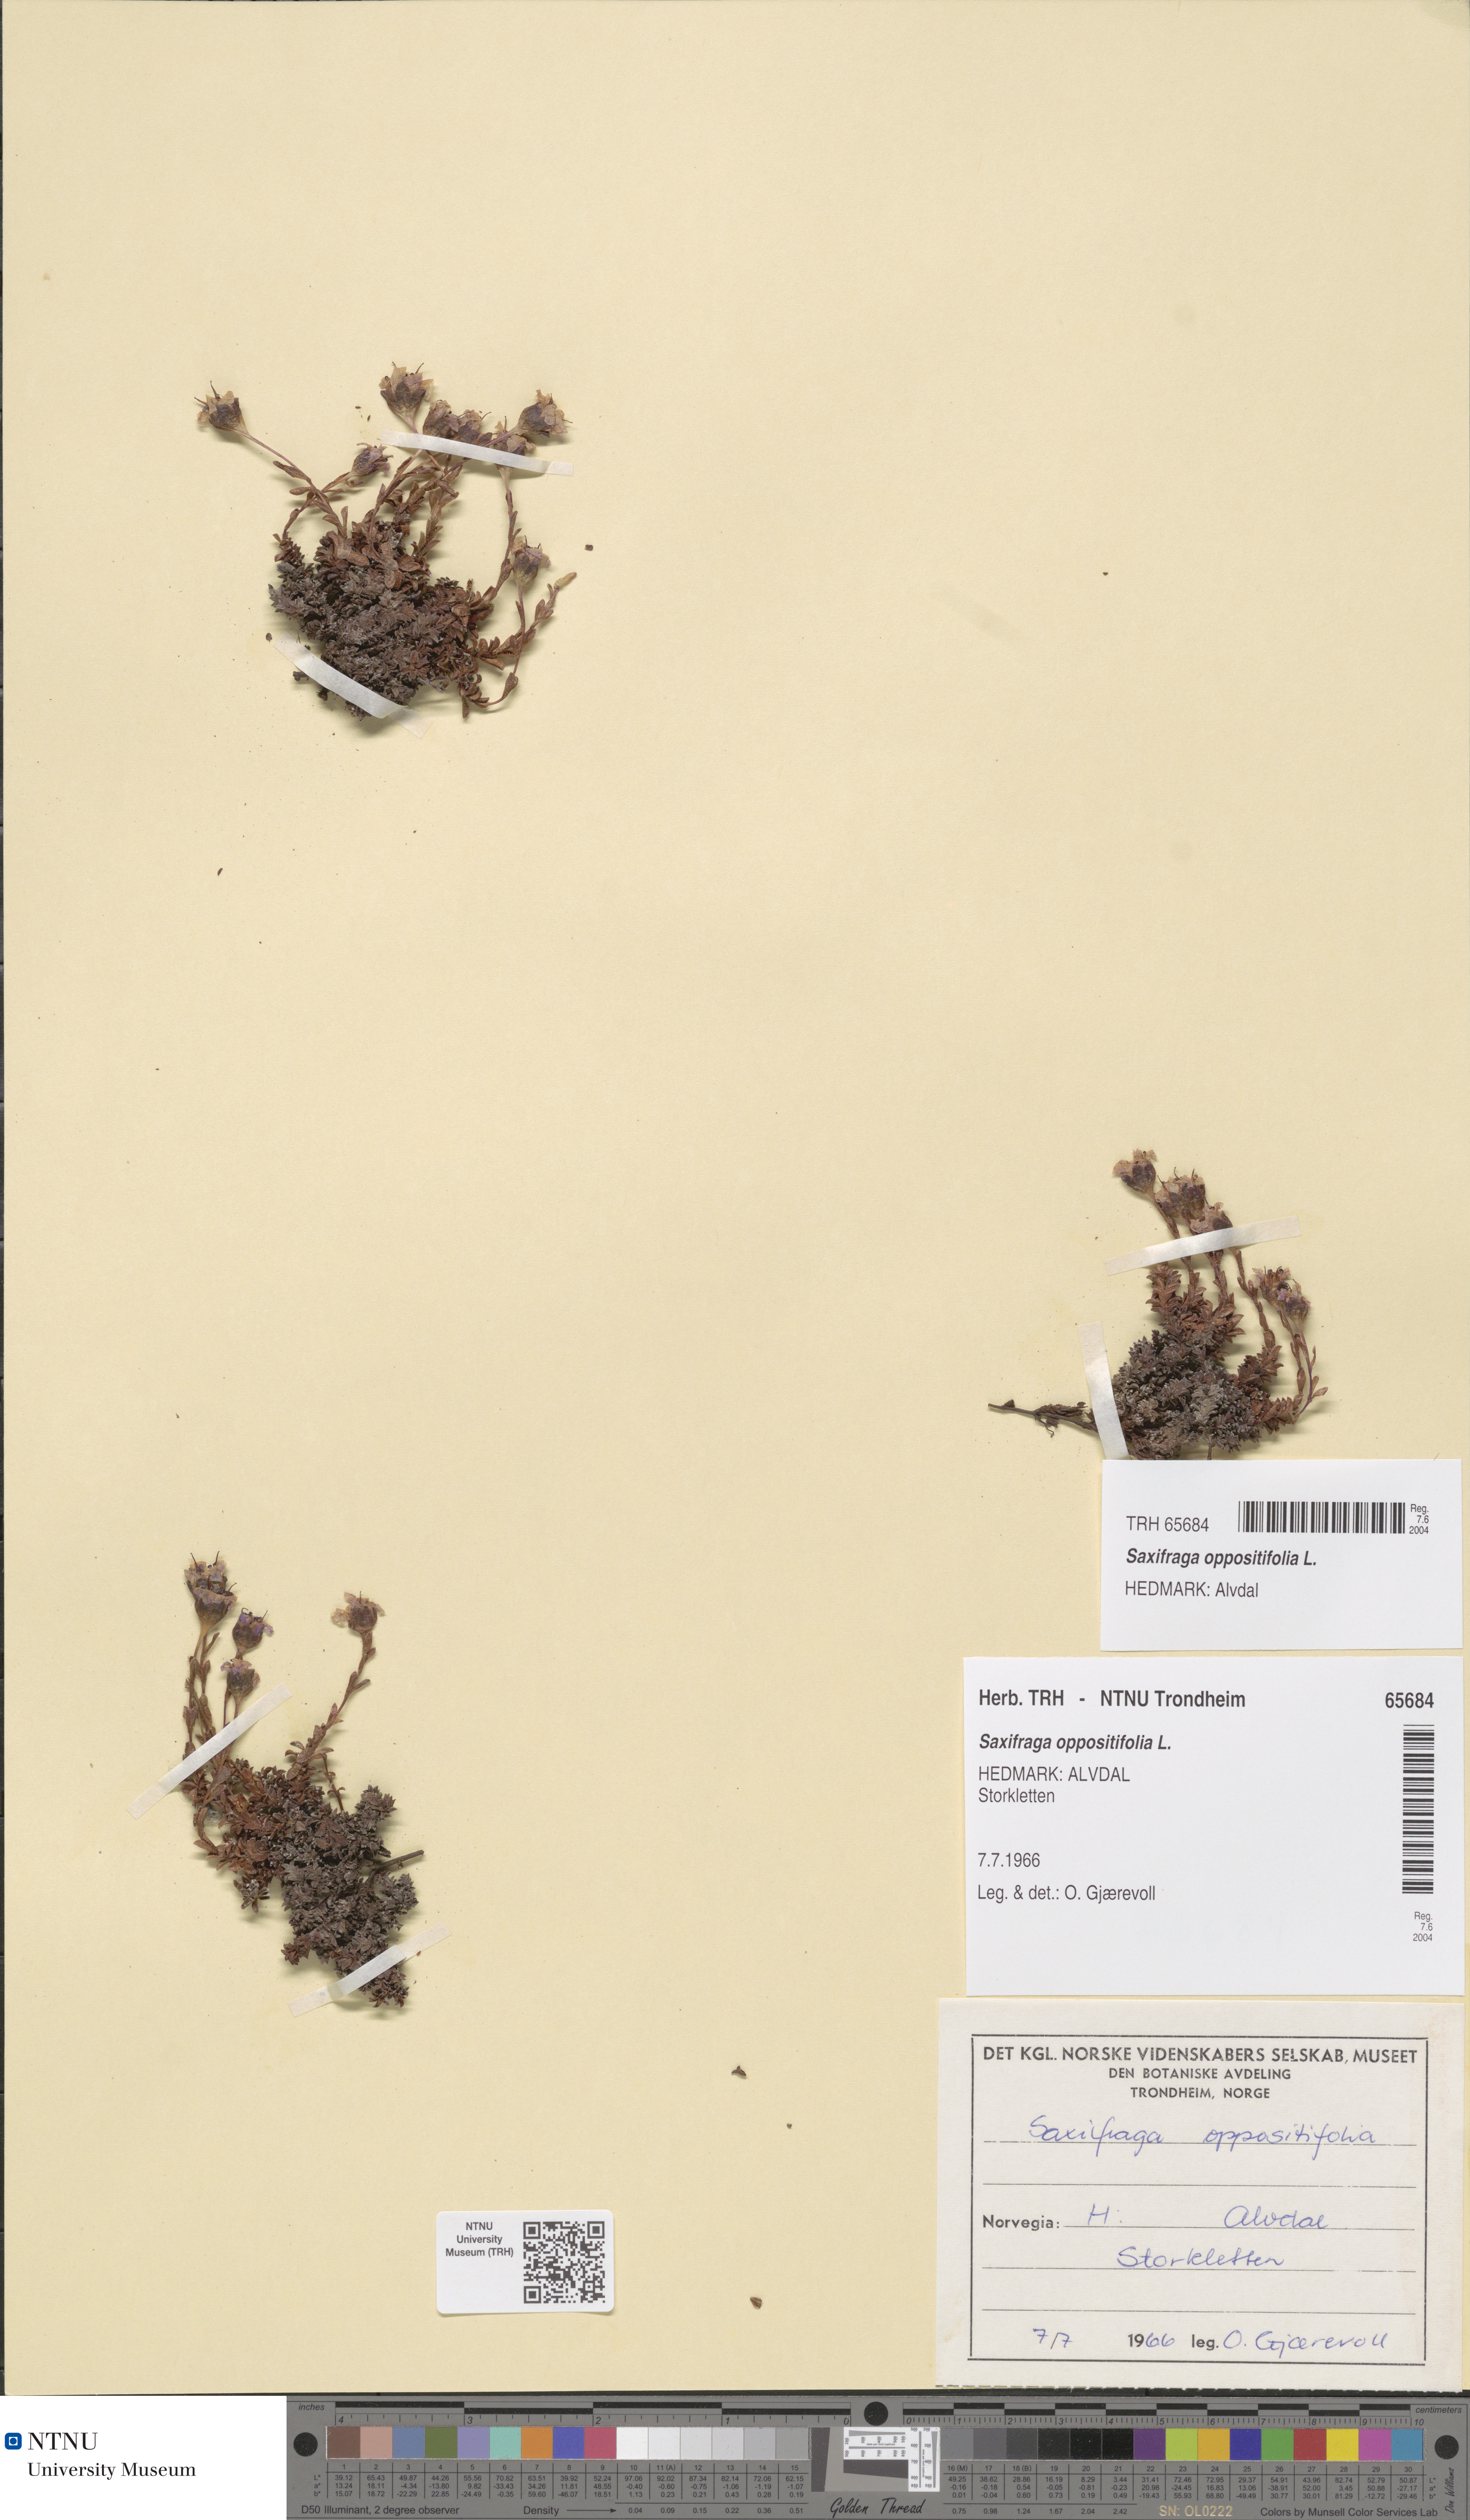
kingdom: Plantae
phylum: Tracheophyta
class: Magnoliopsida
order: Saxifragales
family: Saxifragaceae
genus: Saxifraga
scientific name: Saxifraga oppositifolia
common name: Purple saxifrage
